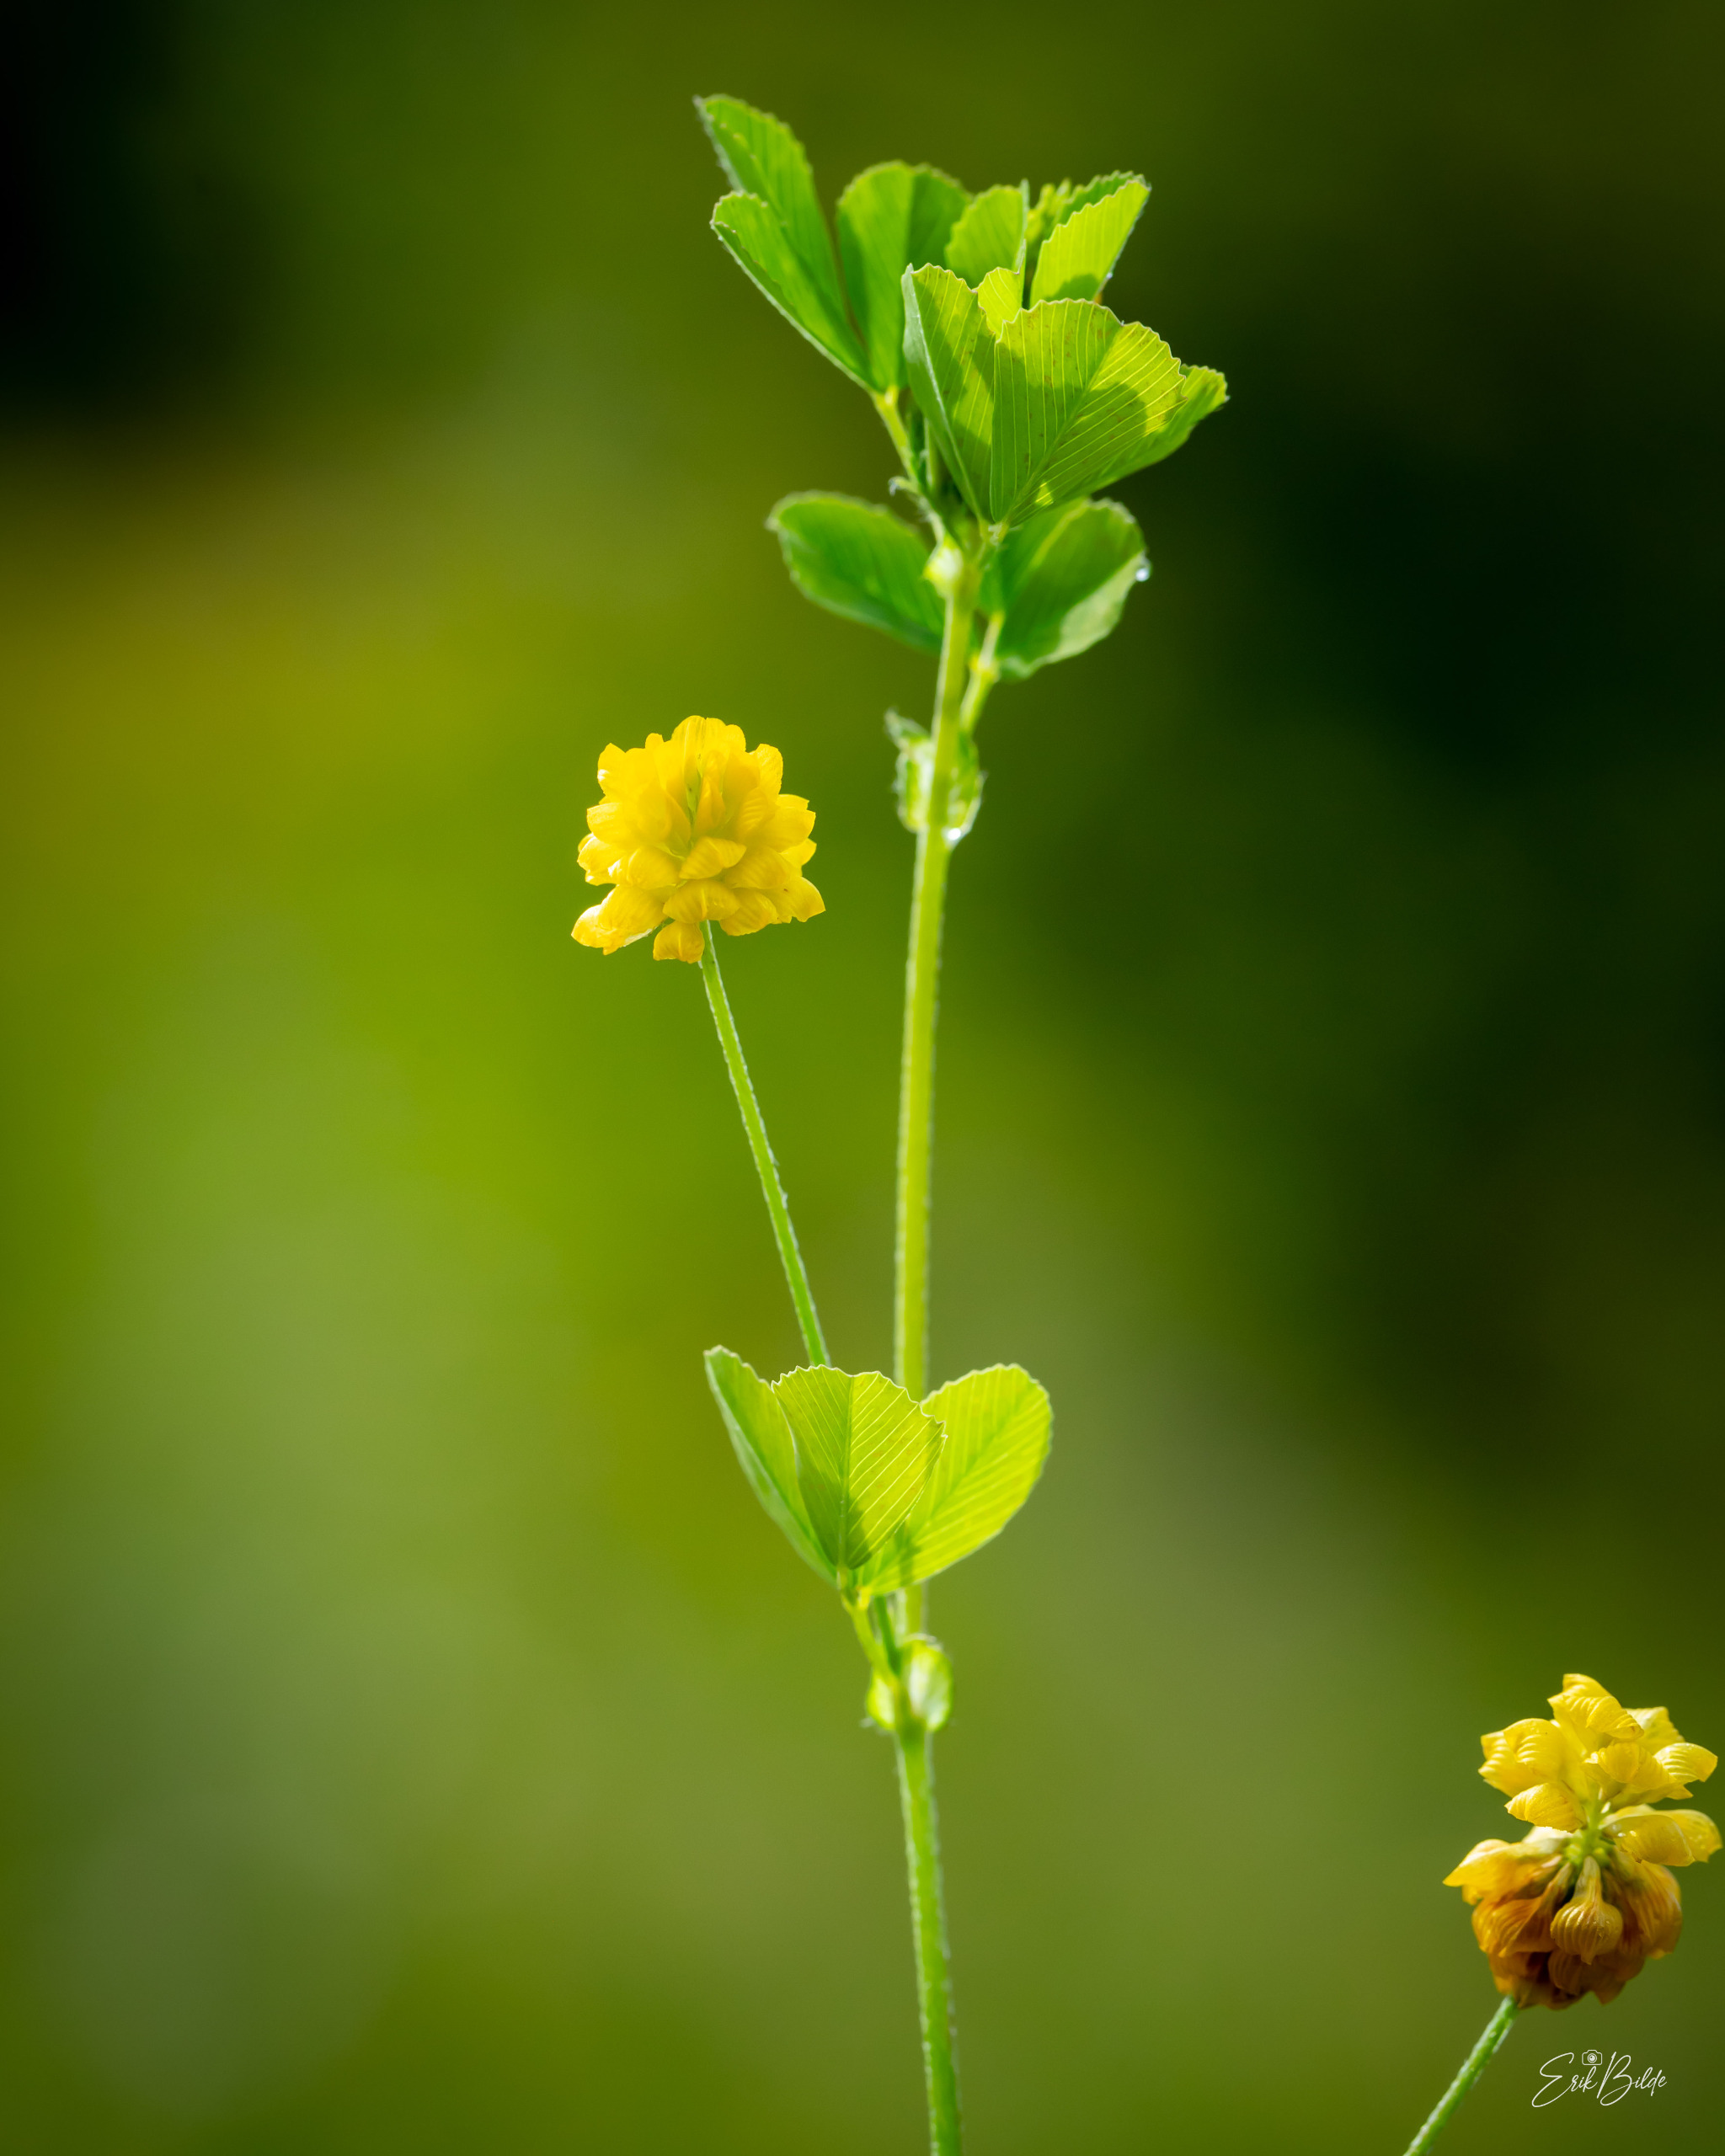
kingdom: Plantae
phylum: Tracheophyta
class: Magnoliopsida
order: Fabales
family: Fabaceae
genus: Trifolium
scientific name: Trifolium campestre
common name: Gul kløver
